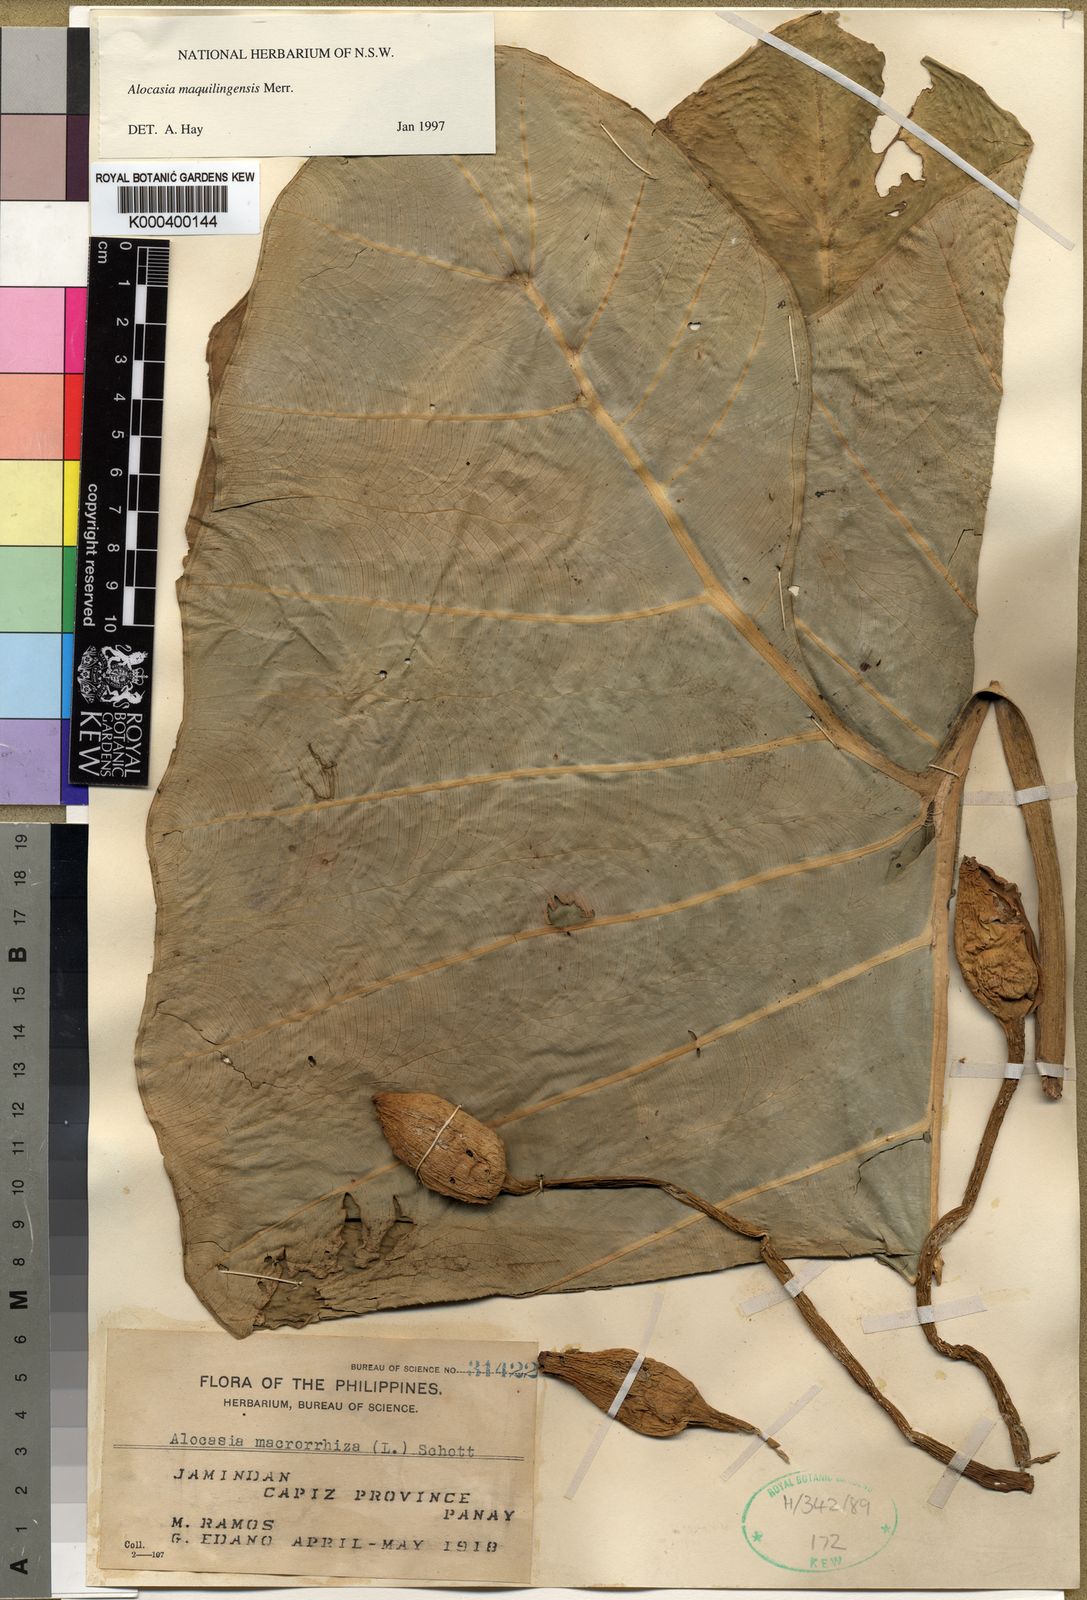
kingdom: Plantae
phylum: Tracheophyta
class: Liliopsida
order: Alismatales
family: Araceae
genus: Alocasia
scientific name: Alocasia maquilingensis
